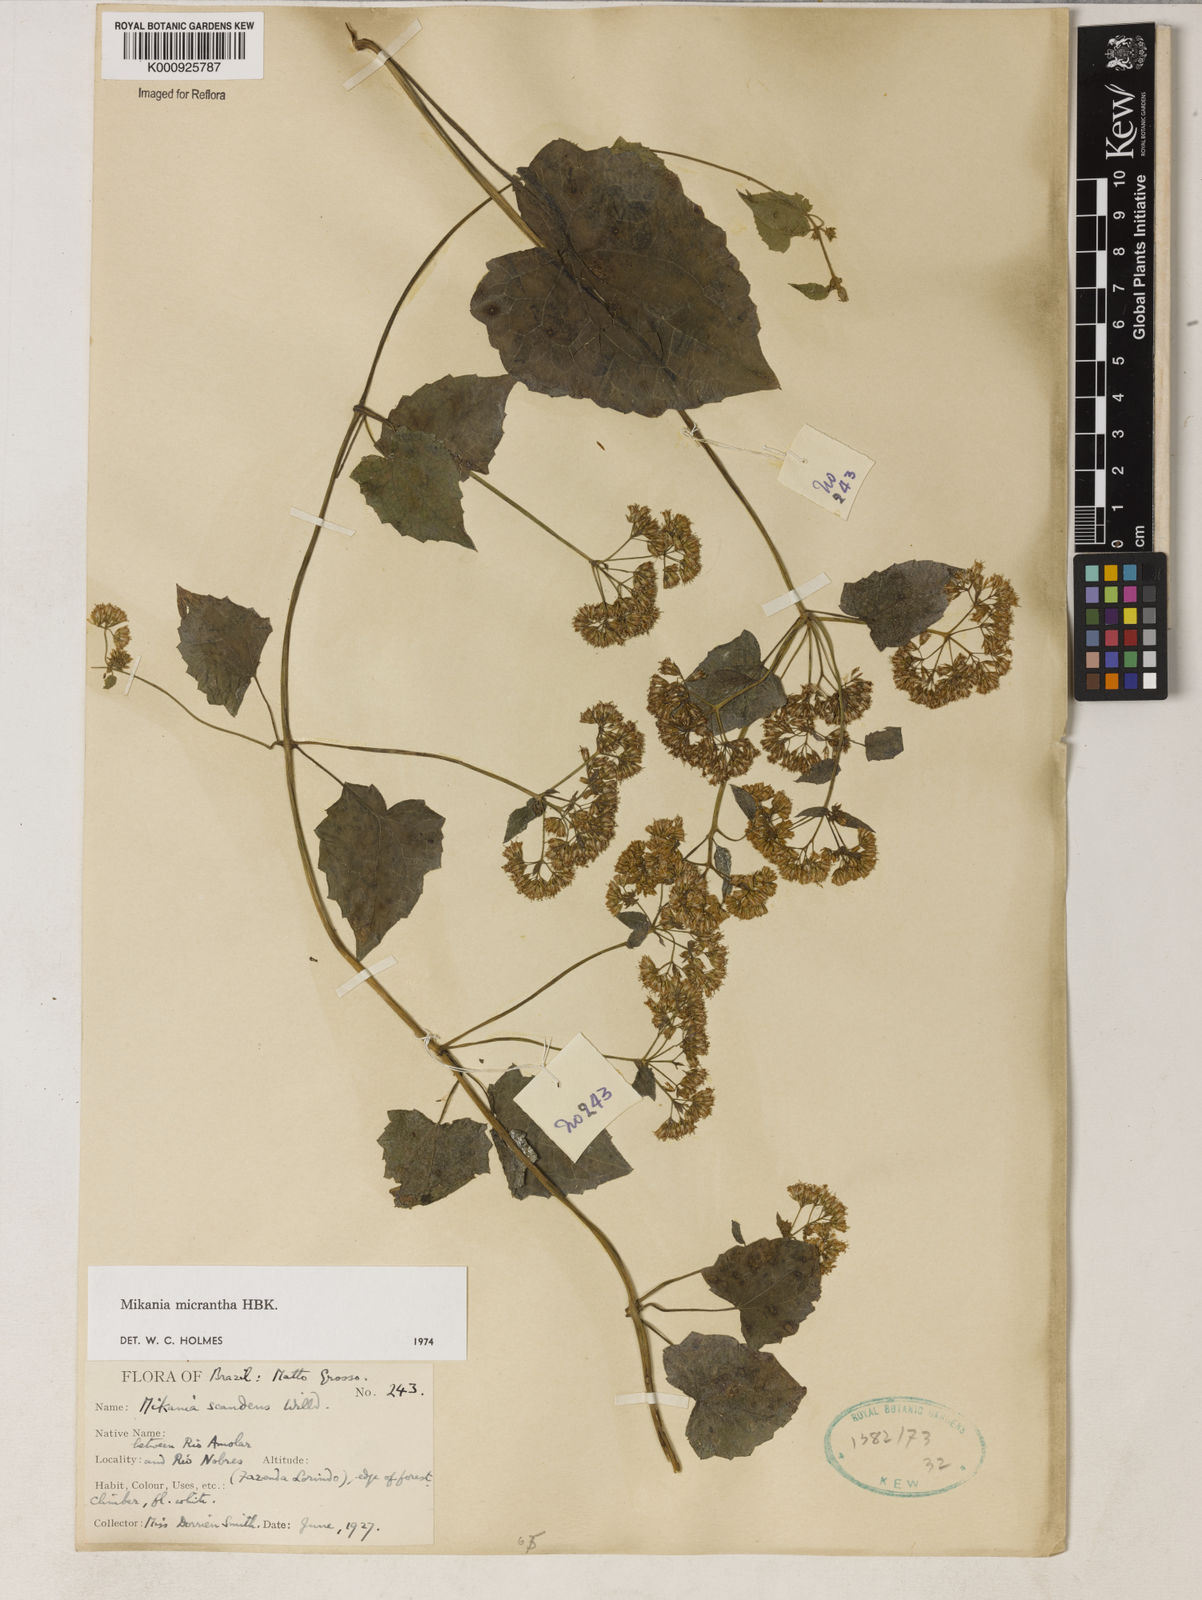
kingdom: Plantae
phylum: Tracheophyta
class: Magnoliopsida
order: Asterales
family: Asteraceae
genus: Mikania
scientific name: Mikania
